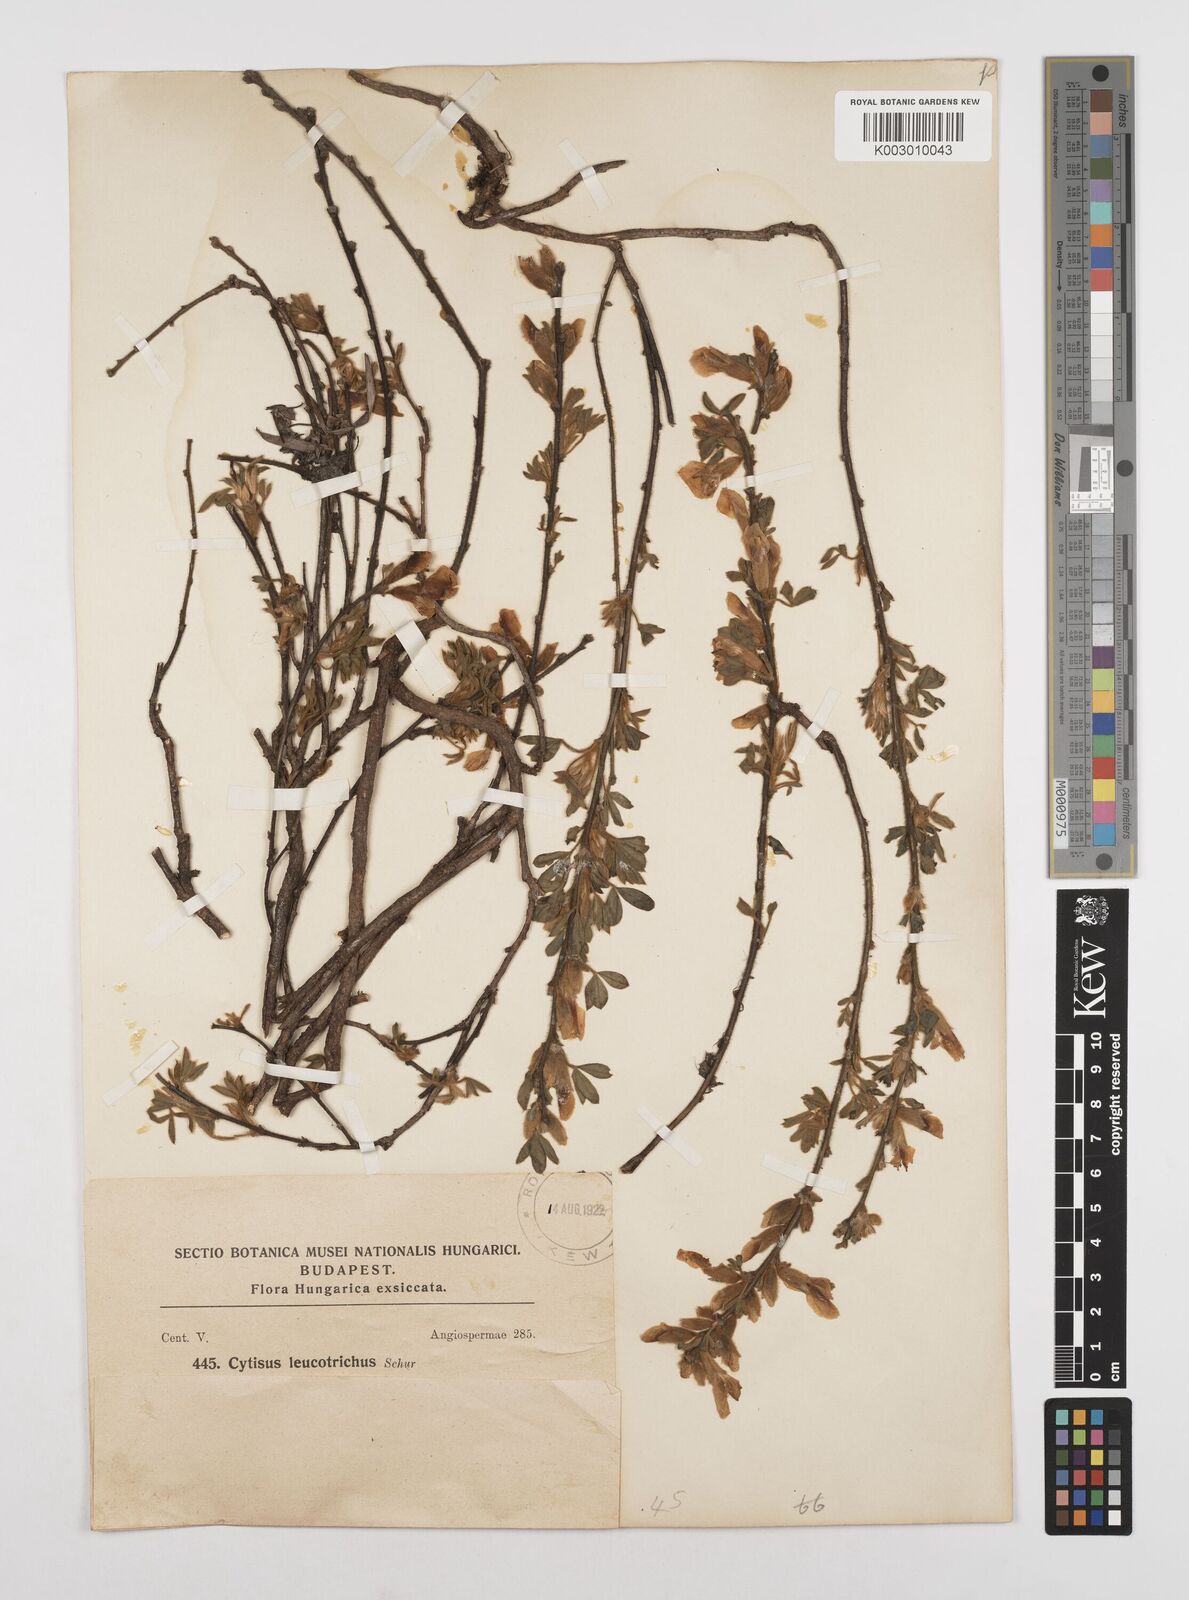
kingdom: Plantae
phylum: Tracheophyta
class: Magnoliopsida
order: Fabales
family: Fabaceae
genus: Chamaecytisus
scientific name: Chamaecytisus hirsutus
